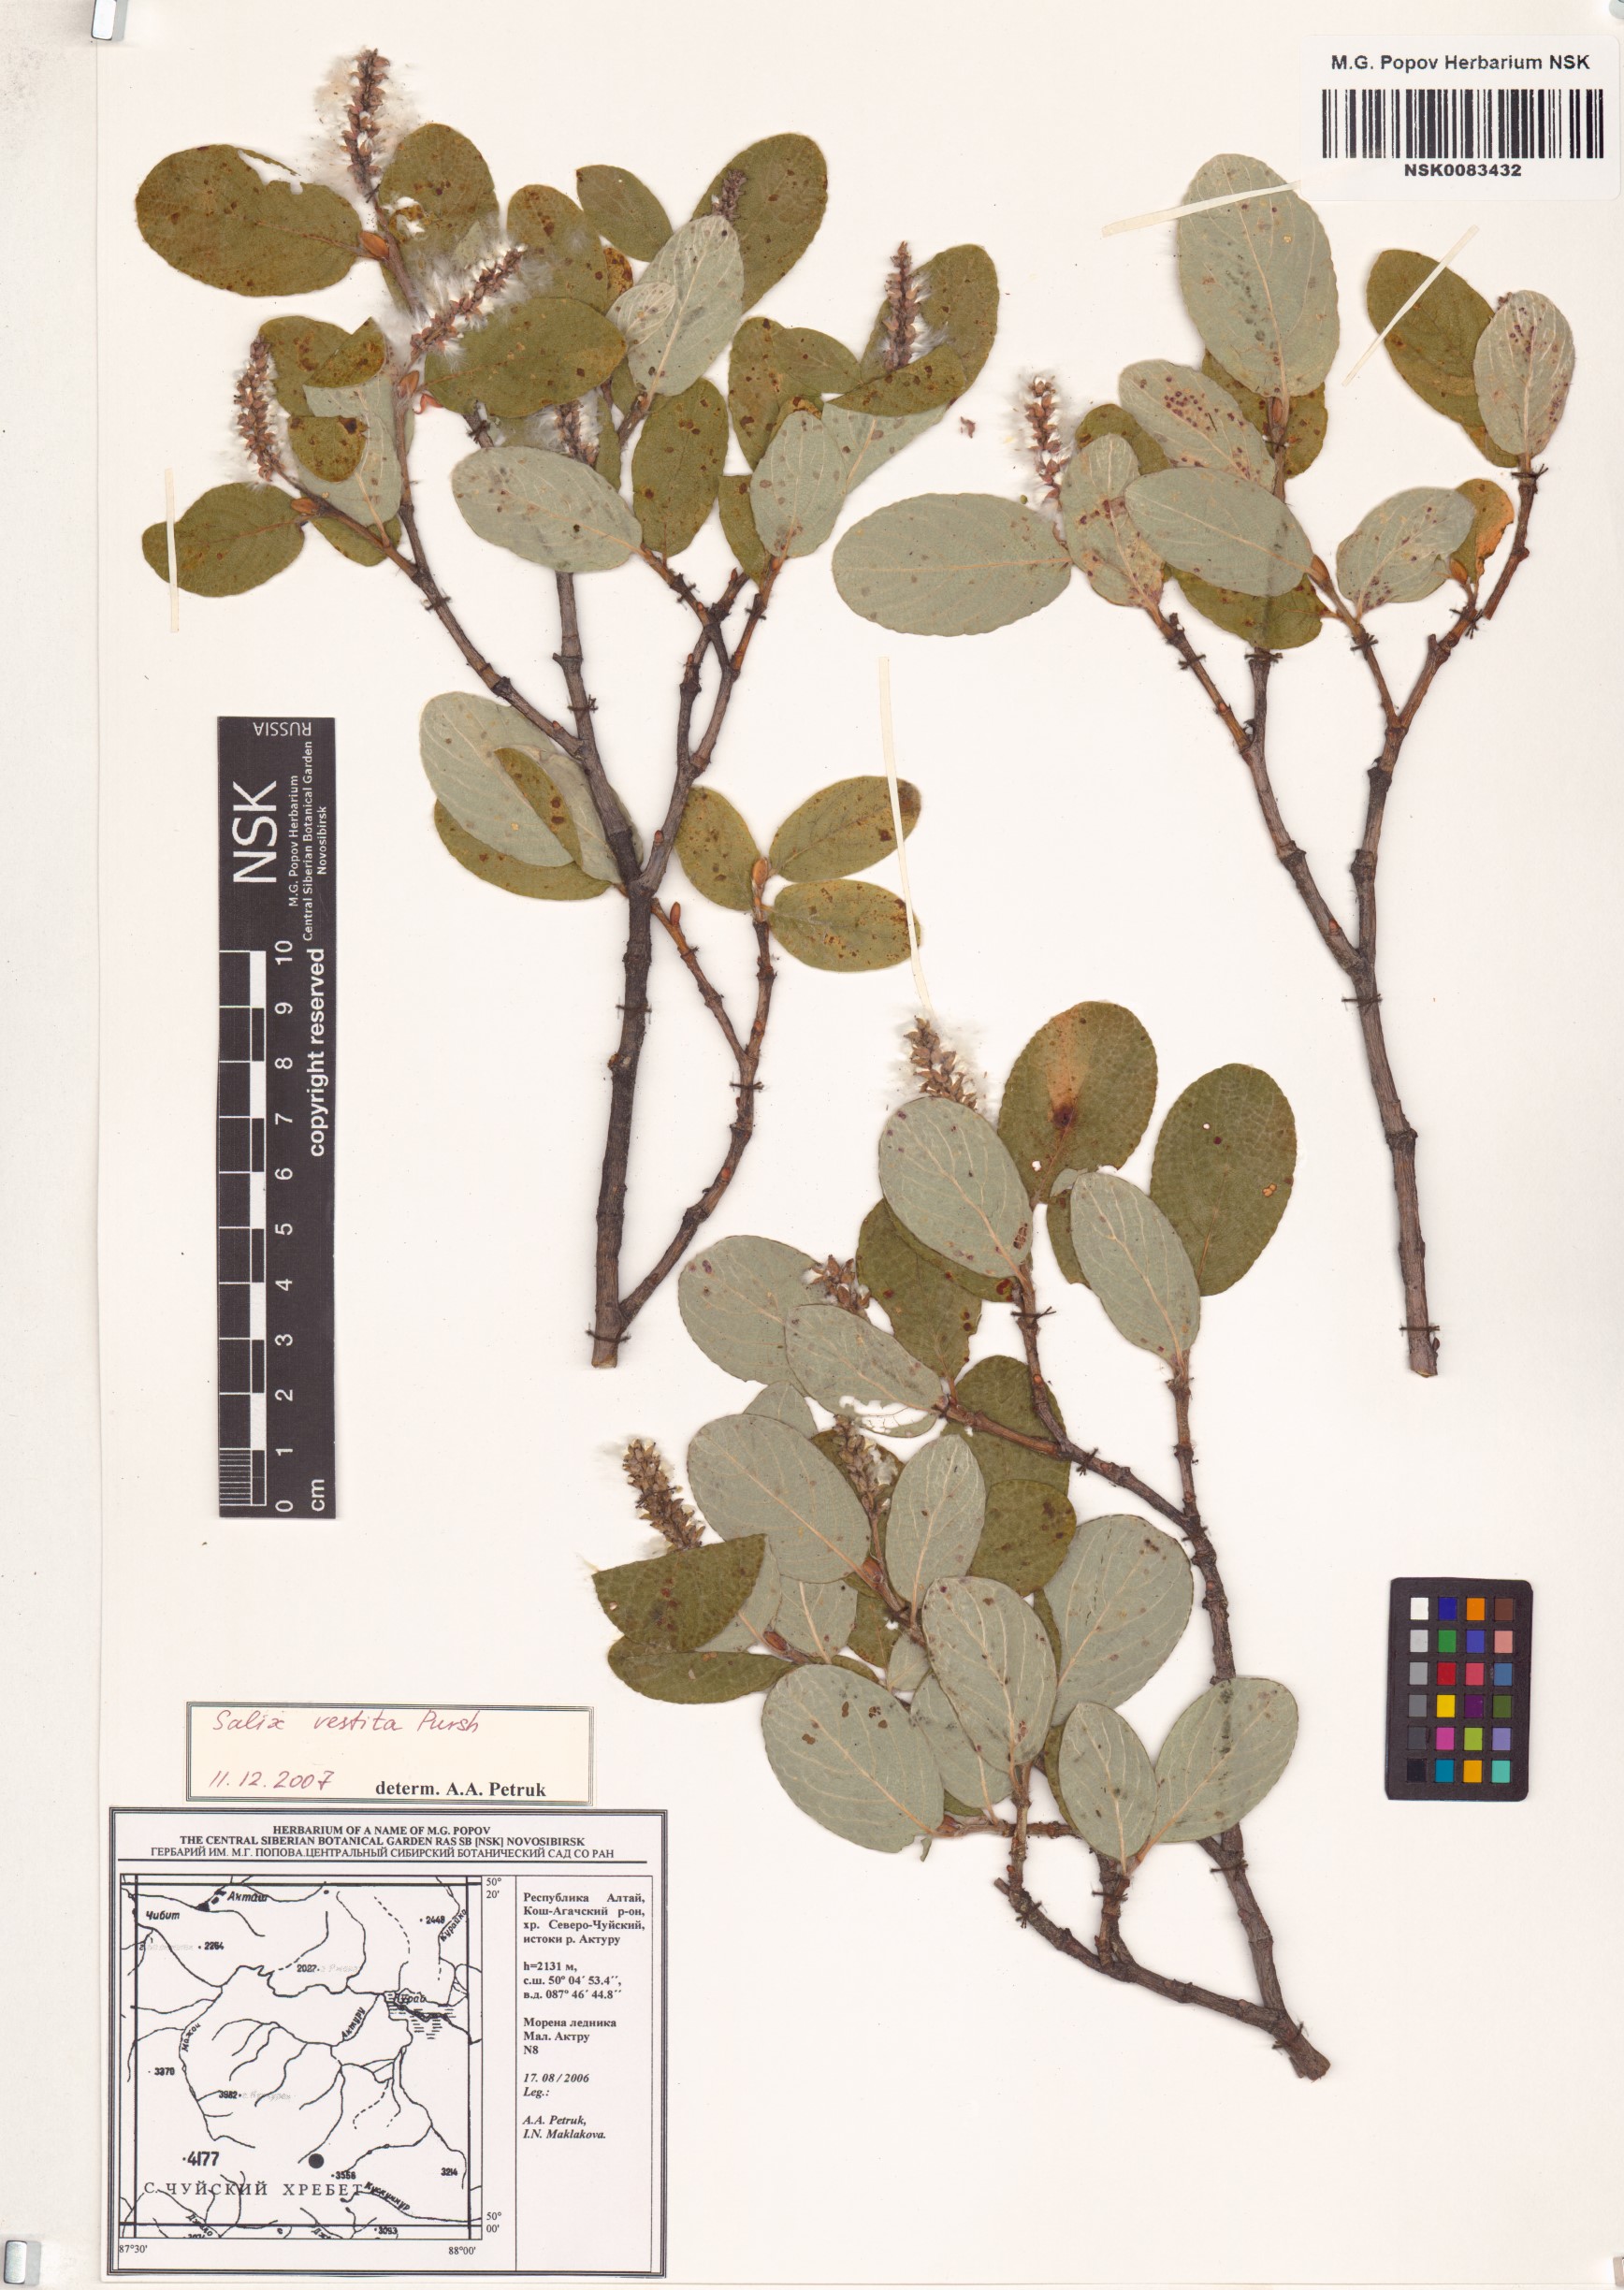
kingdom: Plantae
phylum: Tracheophyta
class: Magnoliopsida
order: Malpighiales
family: Salicaceae
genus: Salix
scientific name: Salix vestita
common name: Hairy willow
